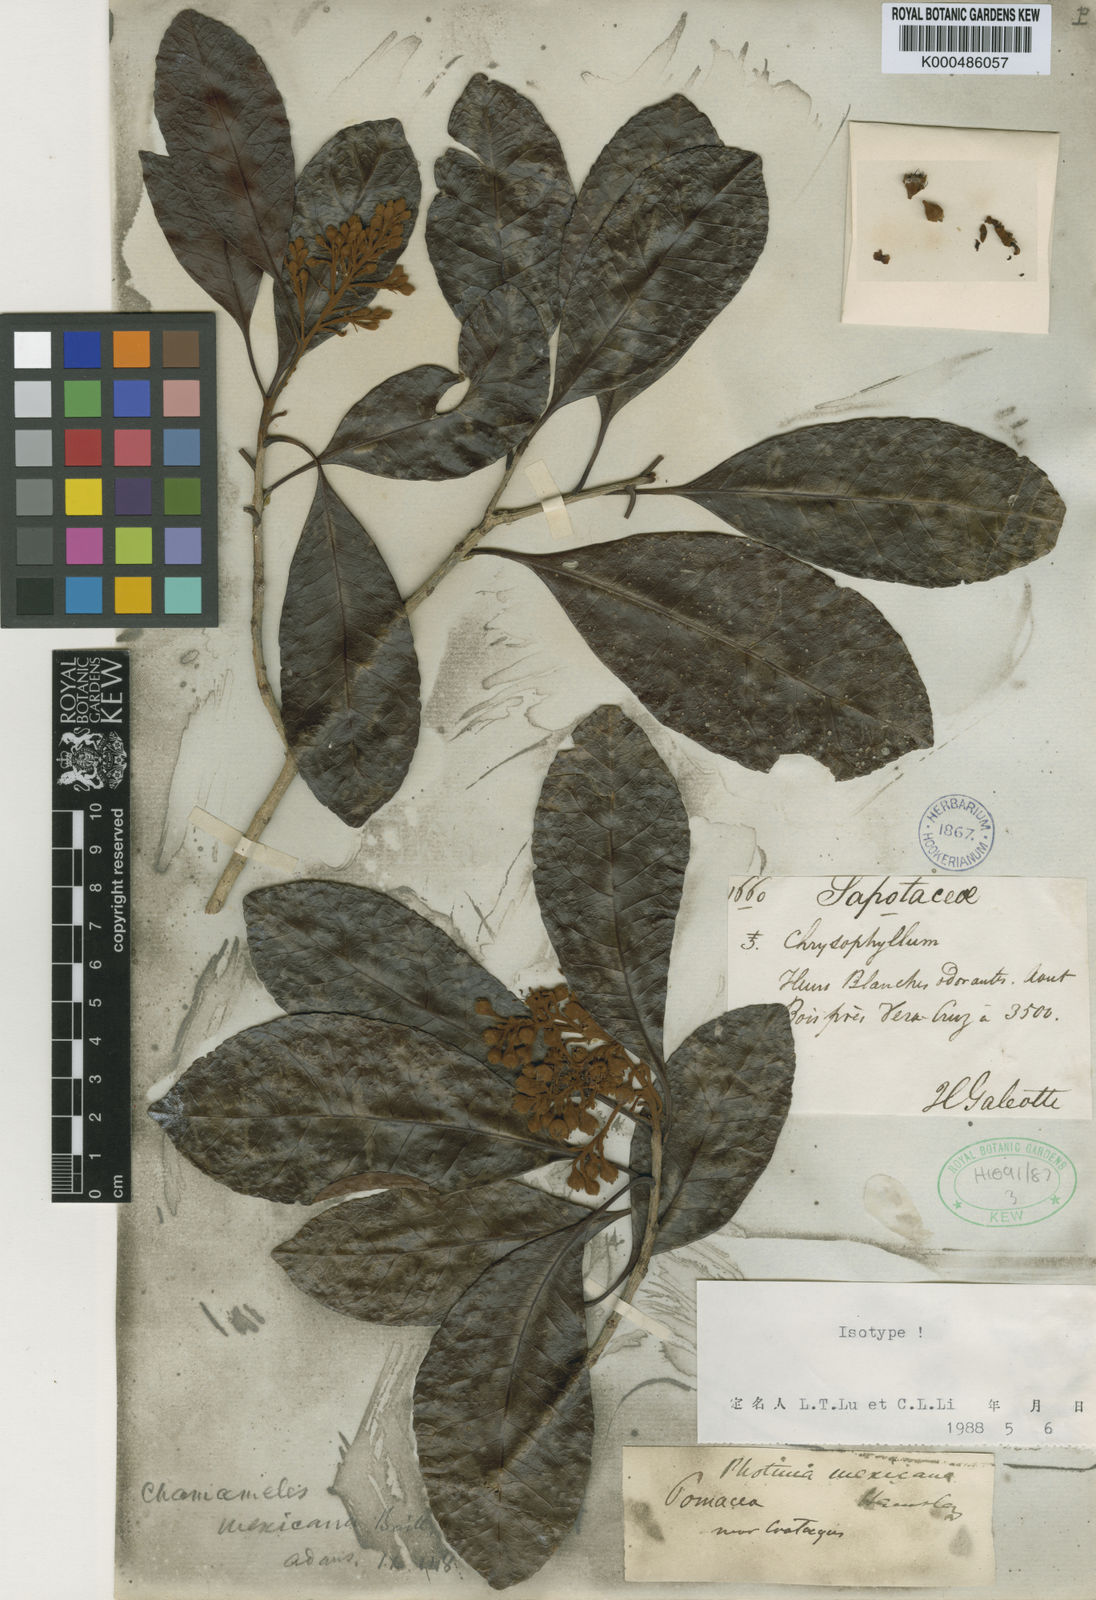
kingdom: Plantae
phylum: Tracheophyta
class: Magnoliopsida
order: Rosales
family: Rosaceae
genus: Phippsiomeles
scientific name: Phippsiomeles mexicana
